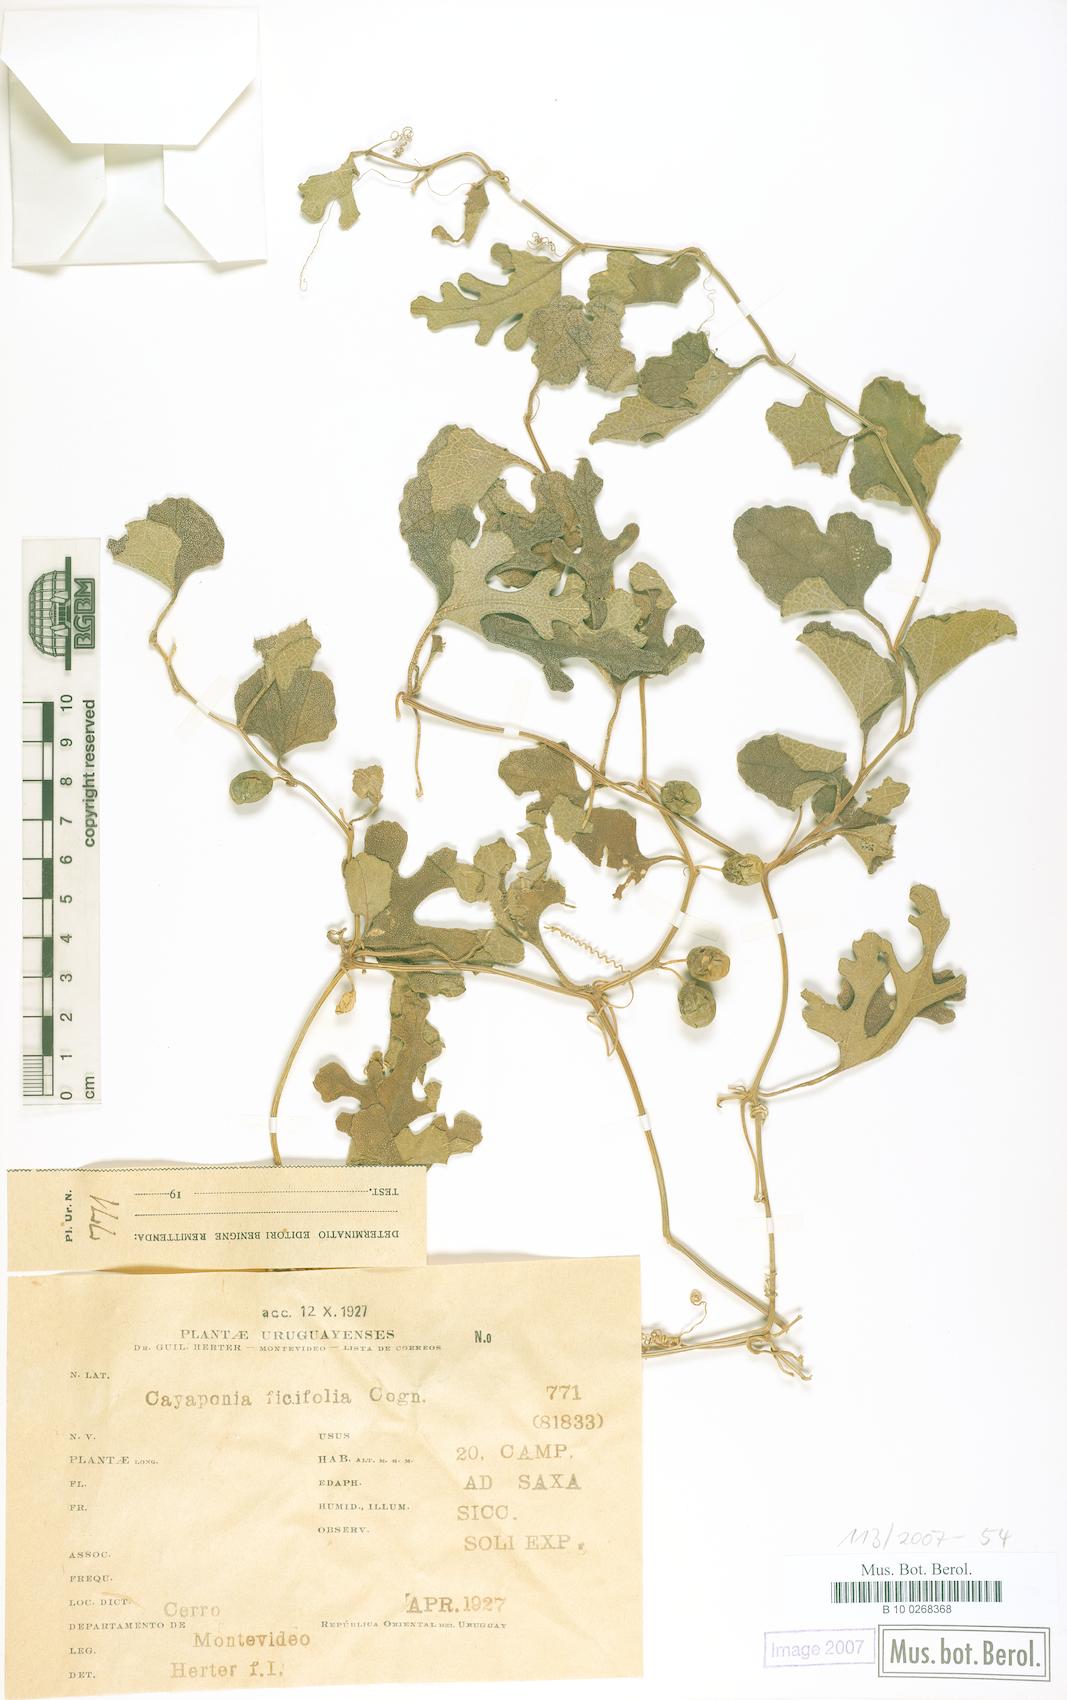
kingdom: Plantae
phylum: Tracheophyta
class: Magnoliopsida
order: Cucurbitales
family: Cucurbitaceae
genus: Cayaponia
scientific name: Cayaponia bonariensis
